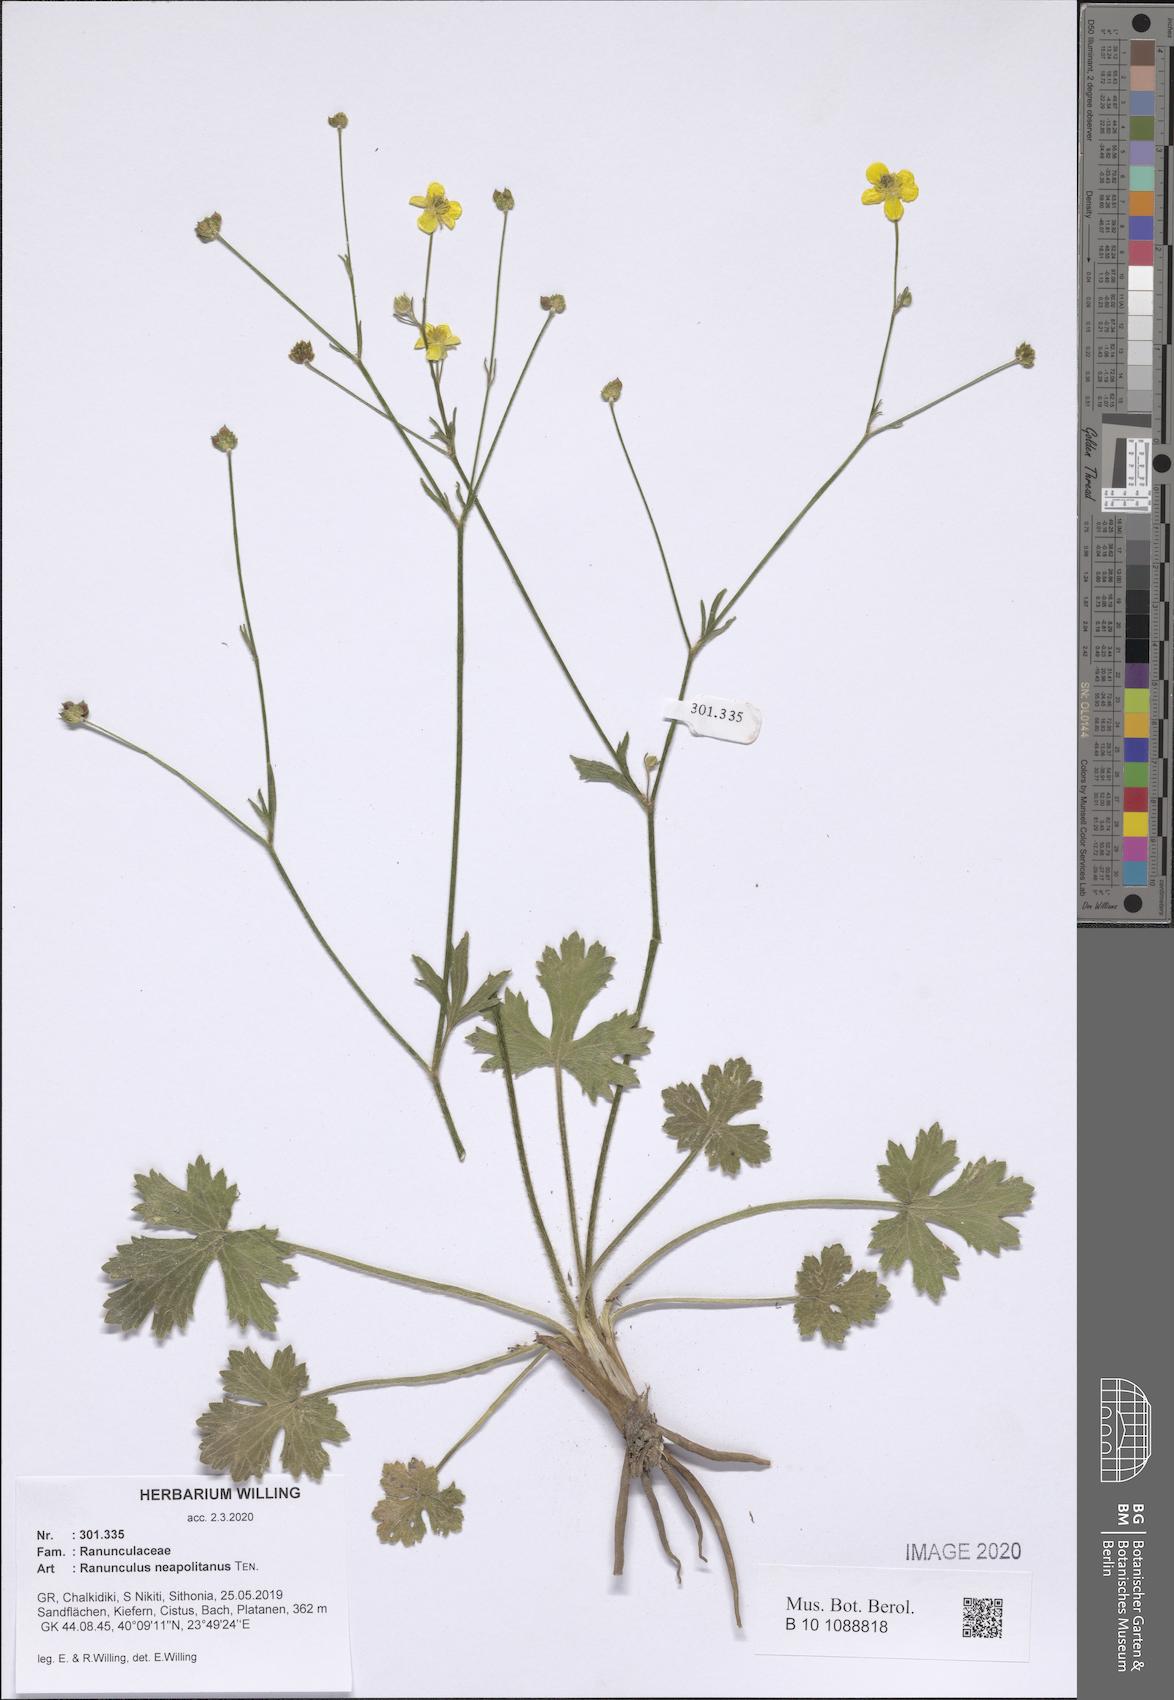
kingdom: Plantae
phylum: Tracheophyta
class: Magnoliopsida
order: Ranunculales
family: Ranunculaceae
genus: Ranunculus
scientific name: Ranunculus neapolitanus
